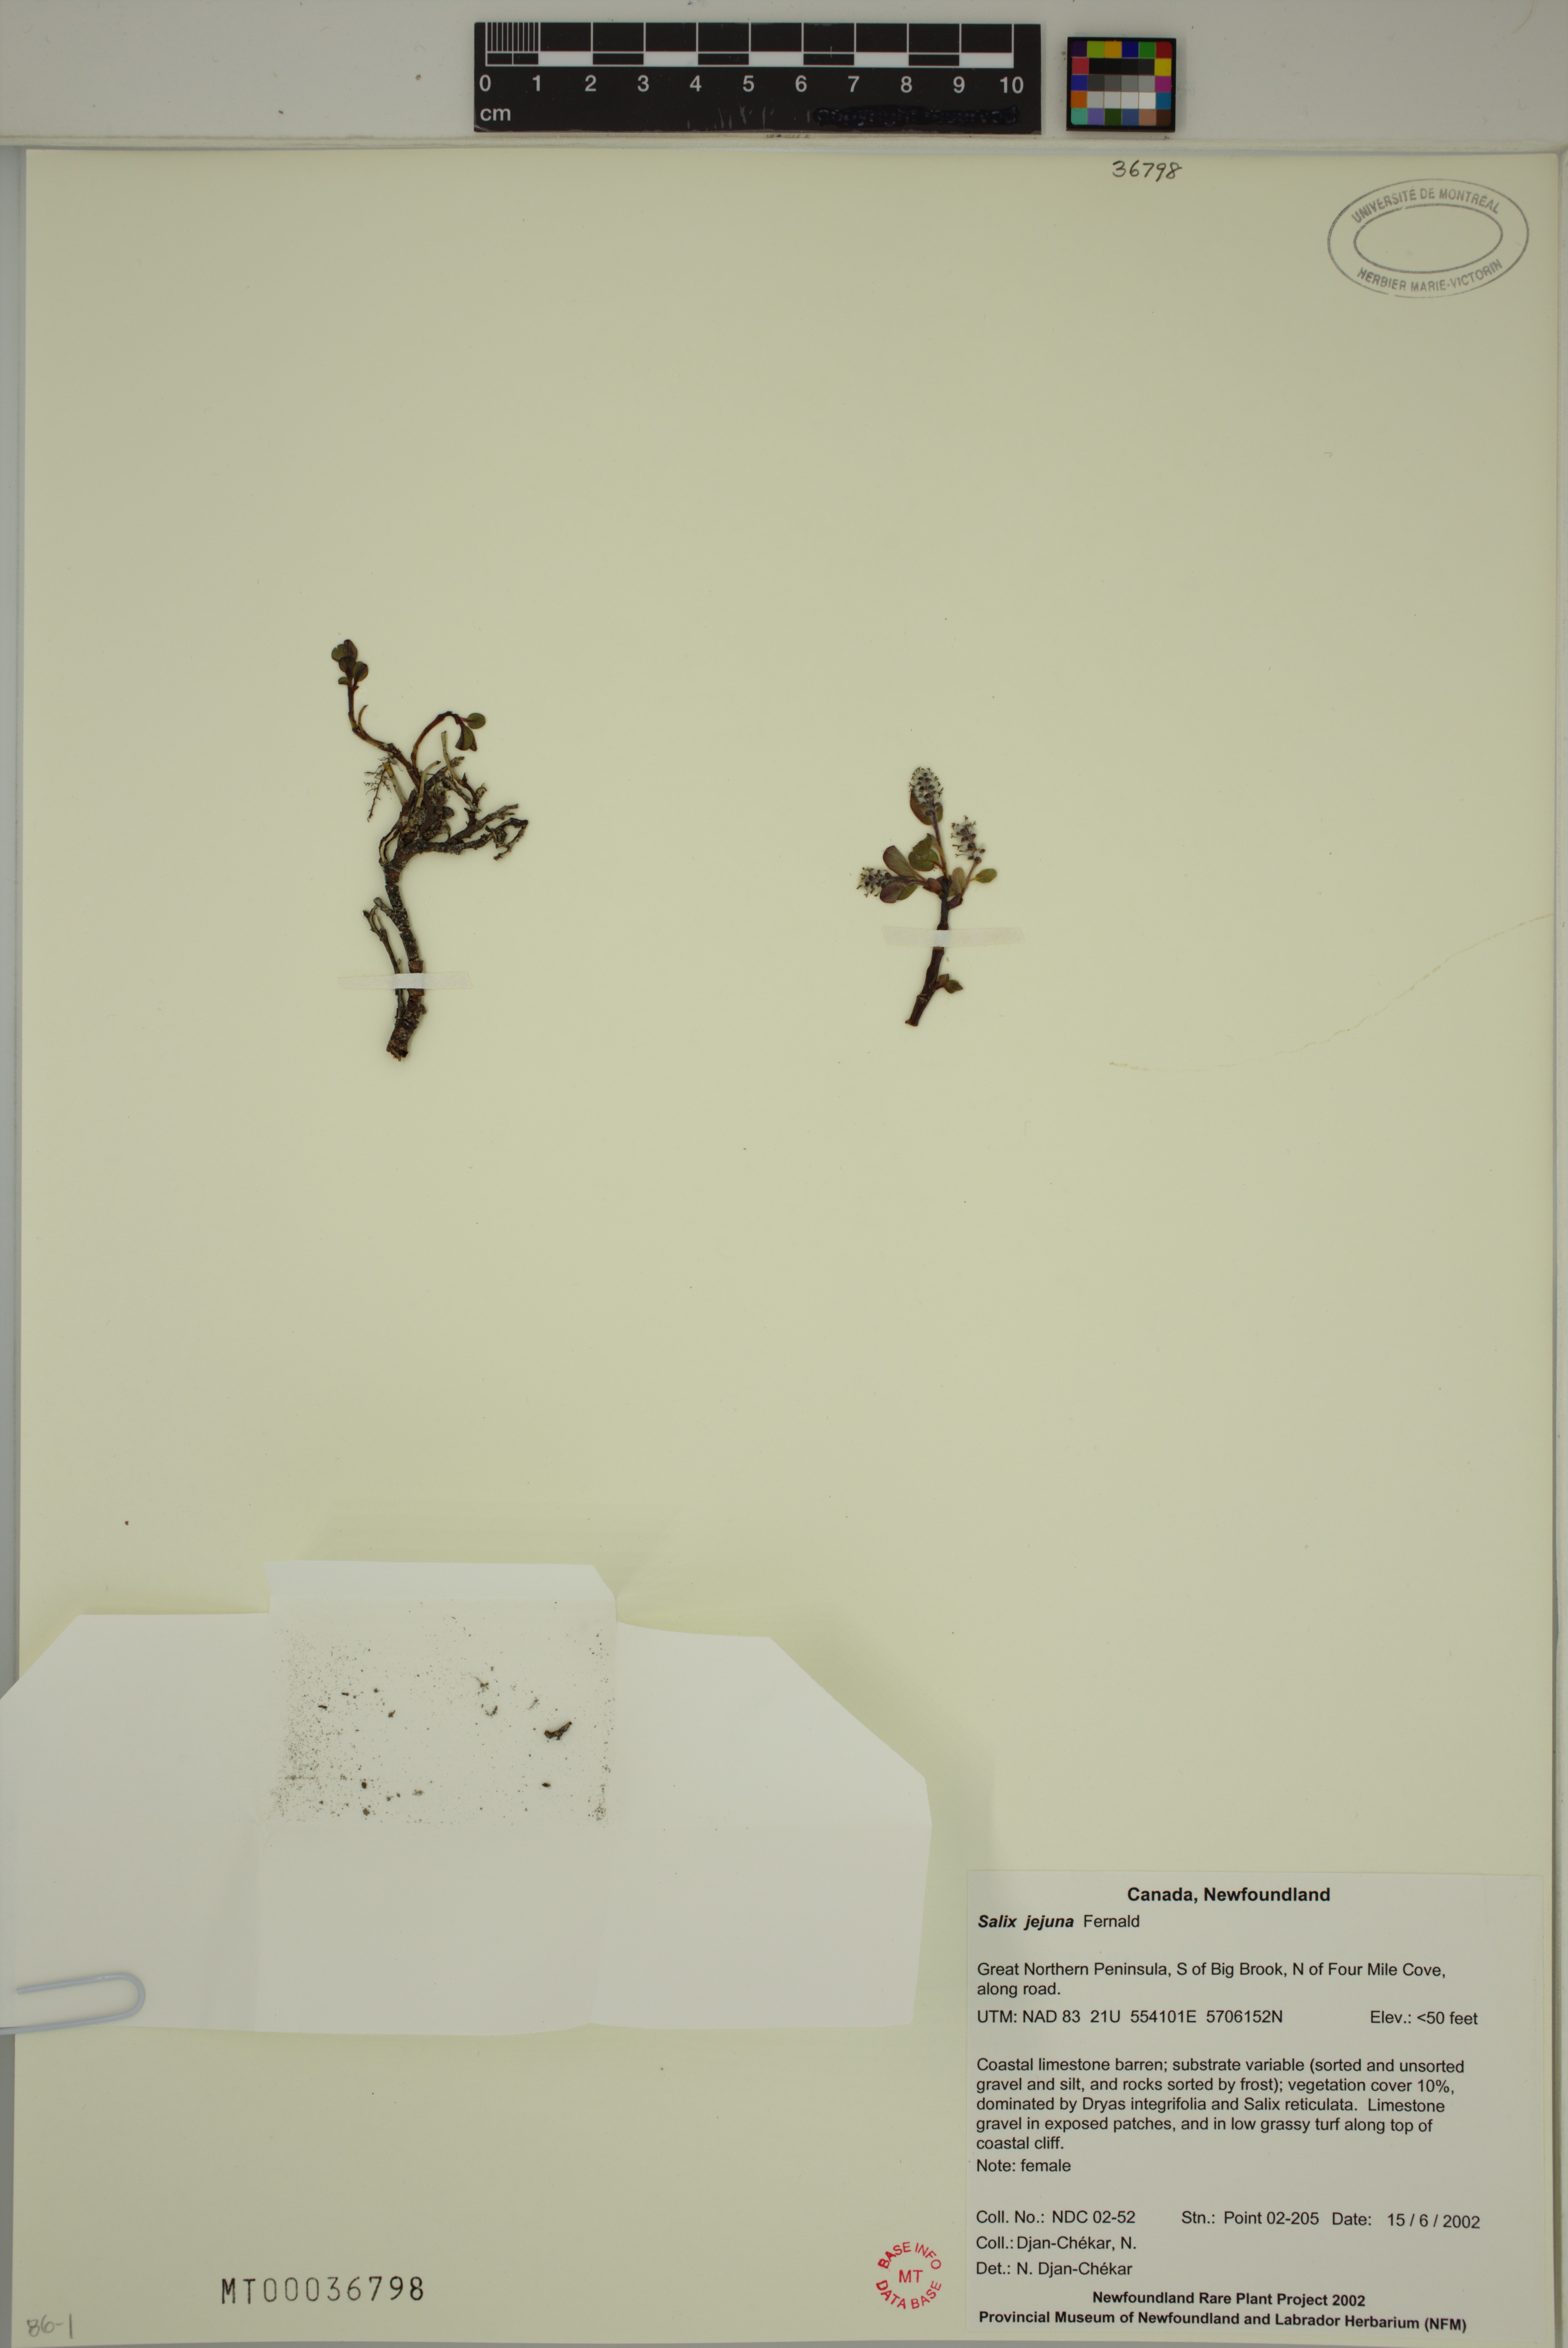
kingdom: Plantae
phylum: Tracheophyta
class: Magnoliopsida
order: Malpighiales
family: Salicaceae
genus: Salix
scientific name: Salix jejuna
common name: Belle isle dwarf willow
